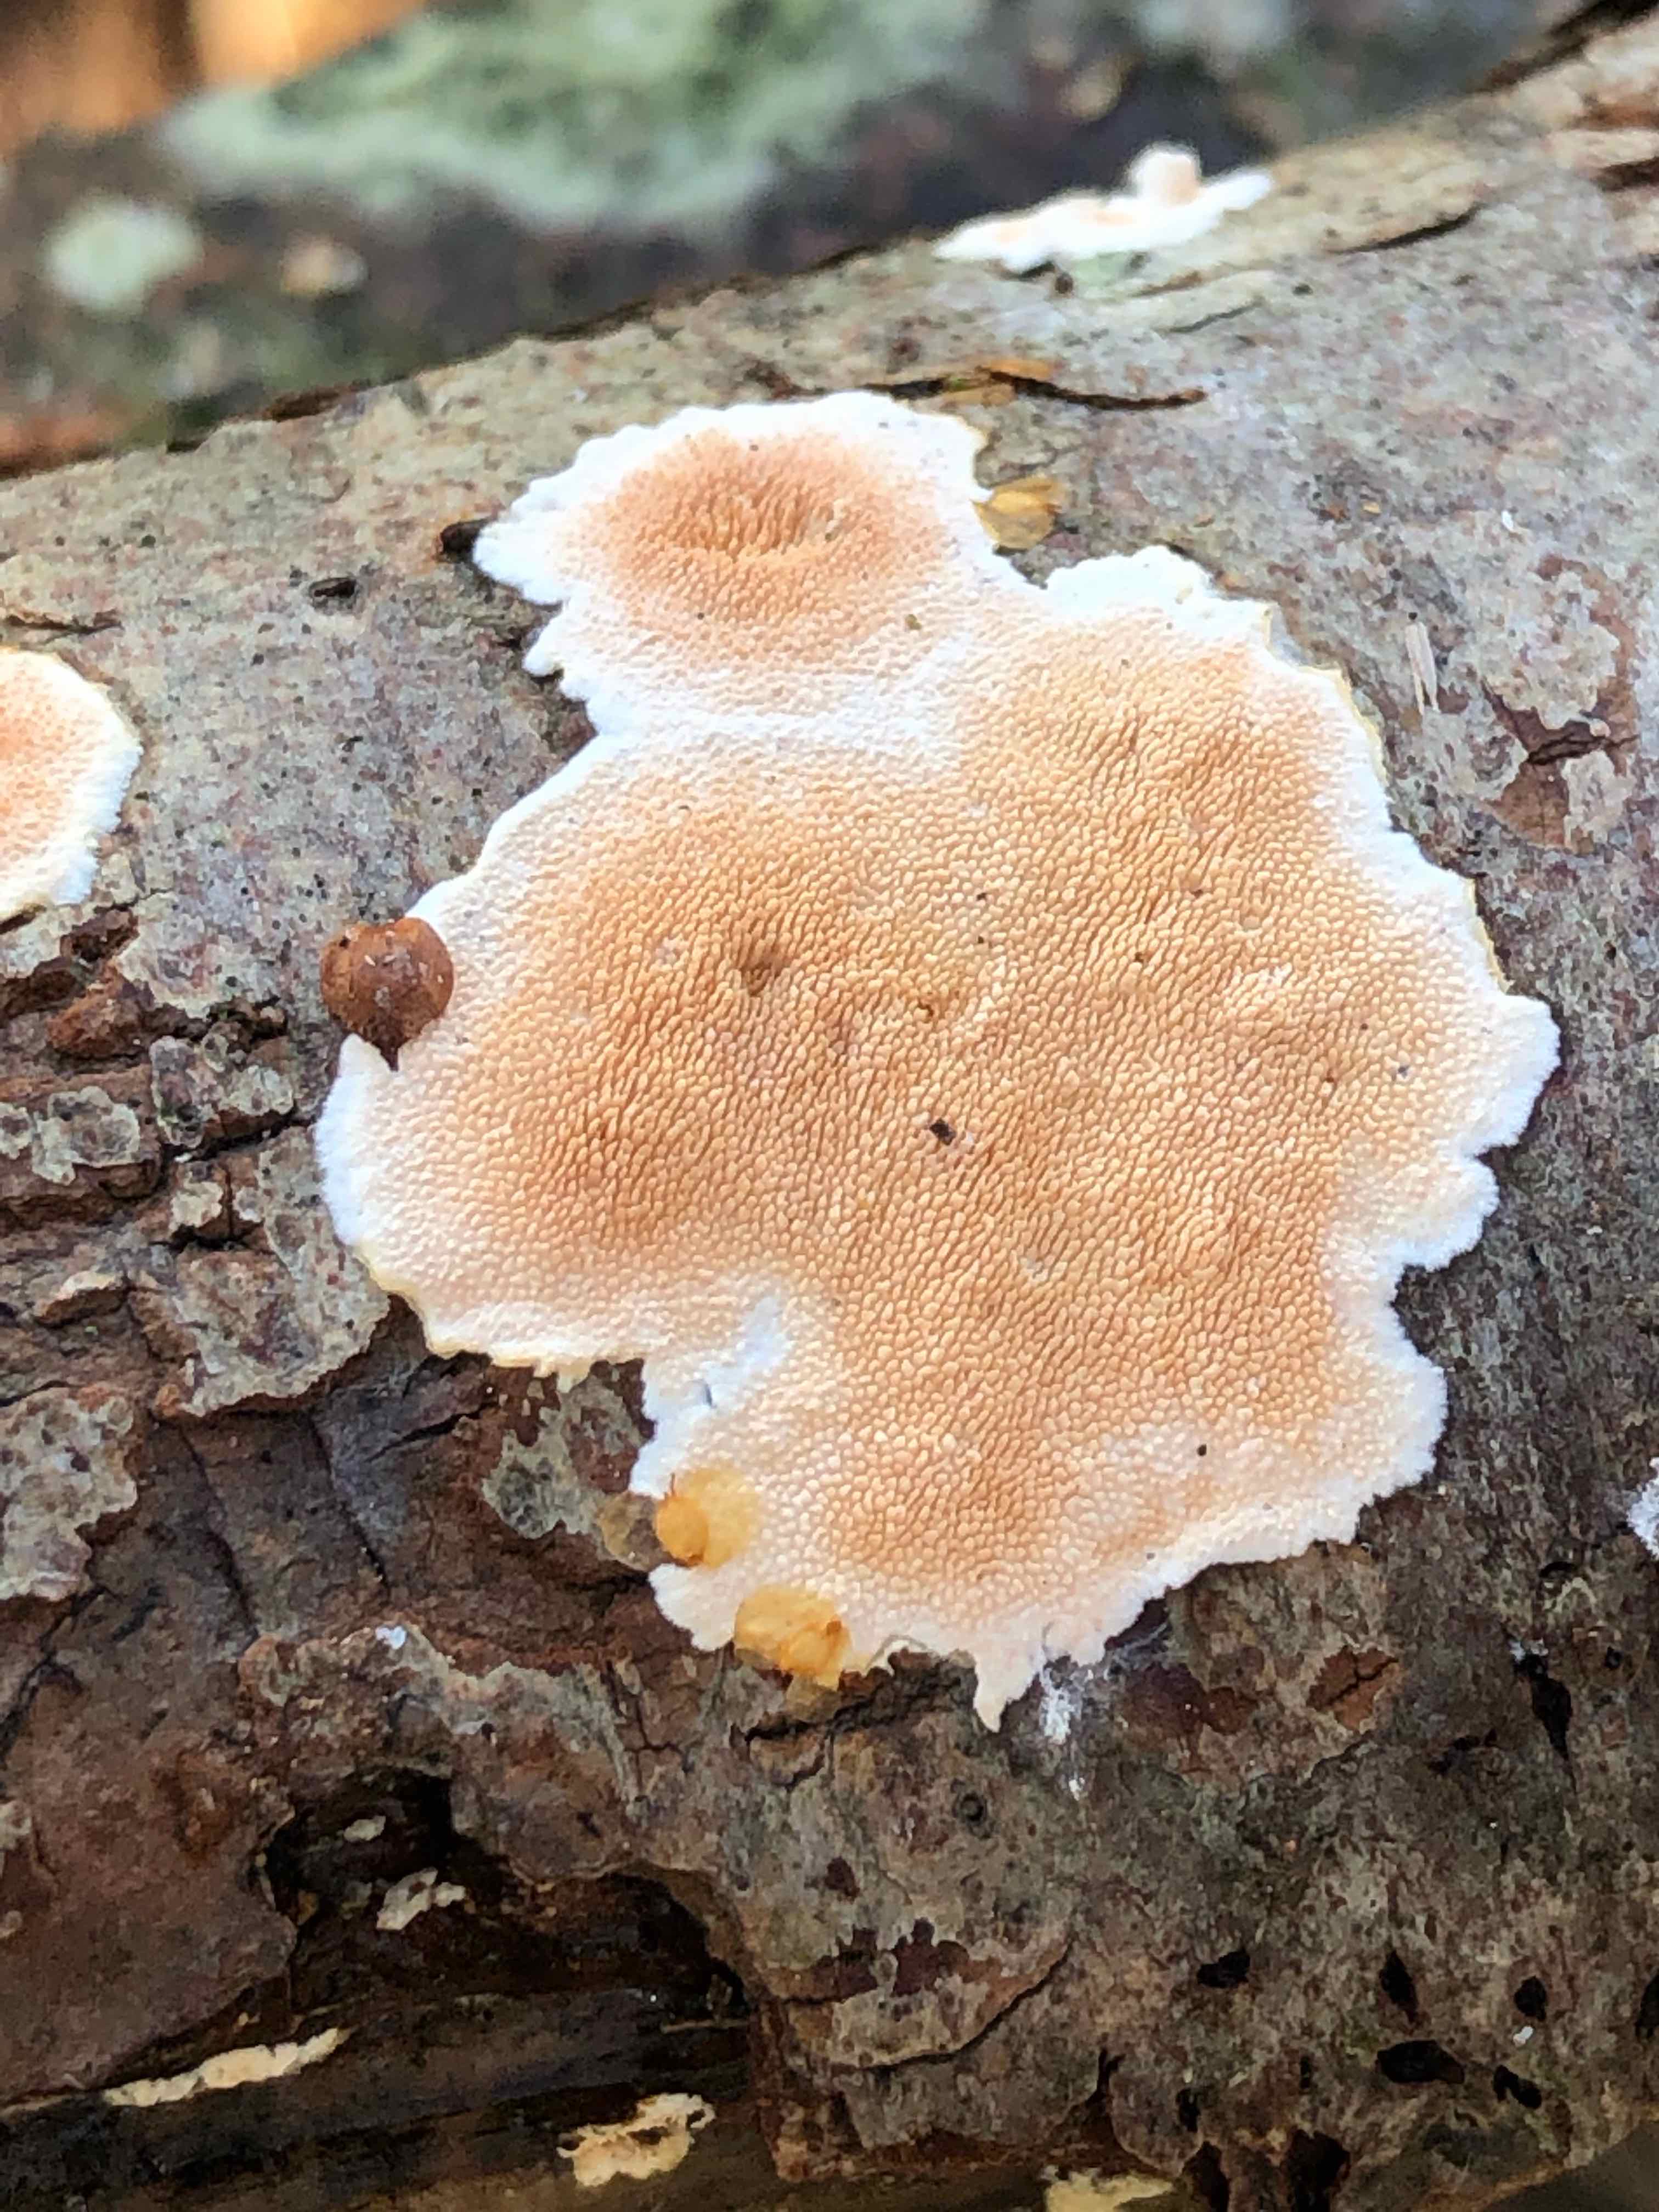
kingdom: Fungi
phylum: Basidiomycota
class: Agaricomycetes
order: Polyporales
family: Steccherinaceae
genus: Steccherinum
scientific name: Steccherinum ochraceum
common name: almindelig skønpig
